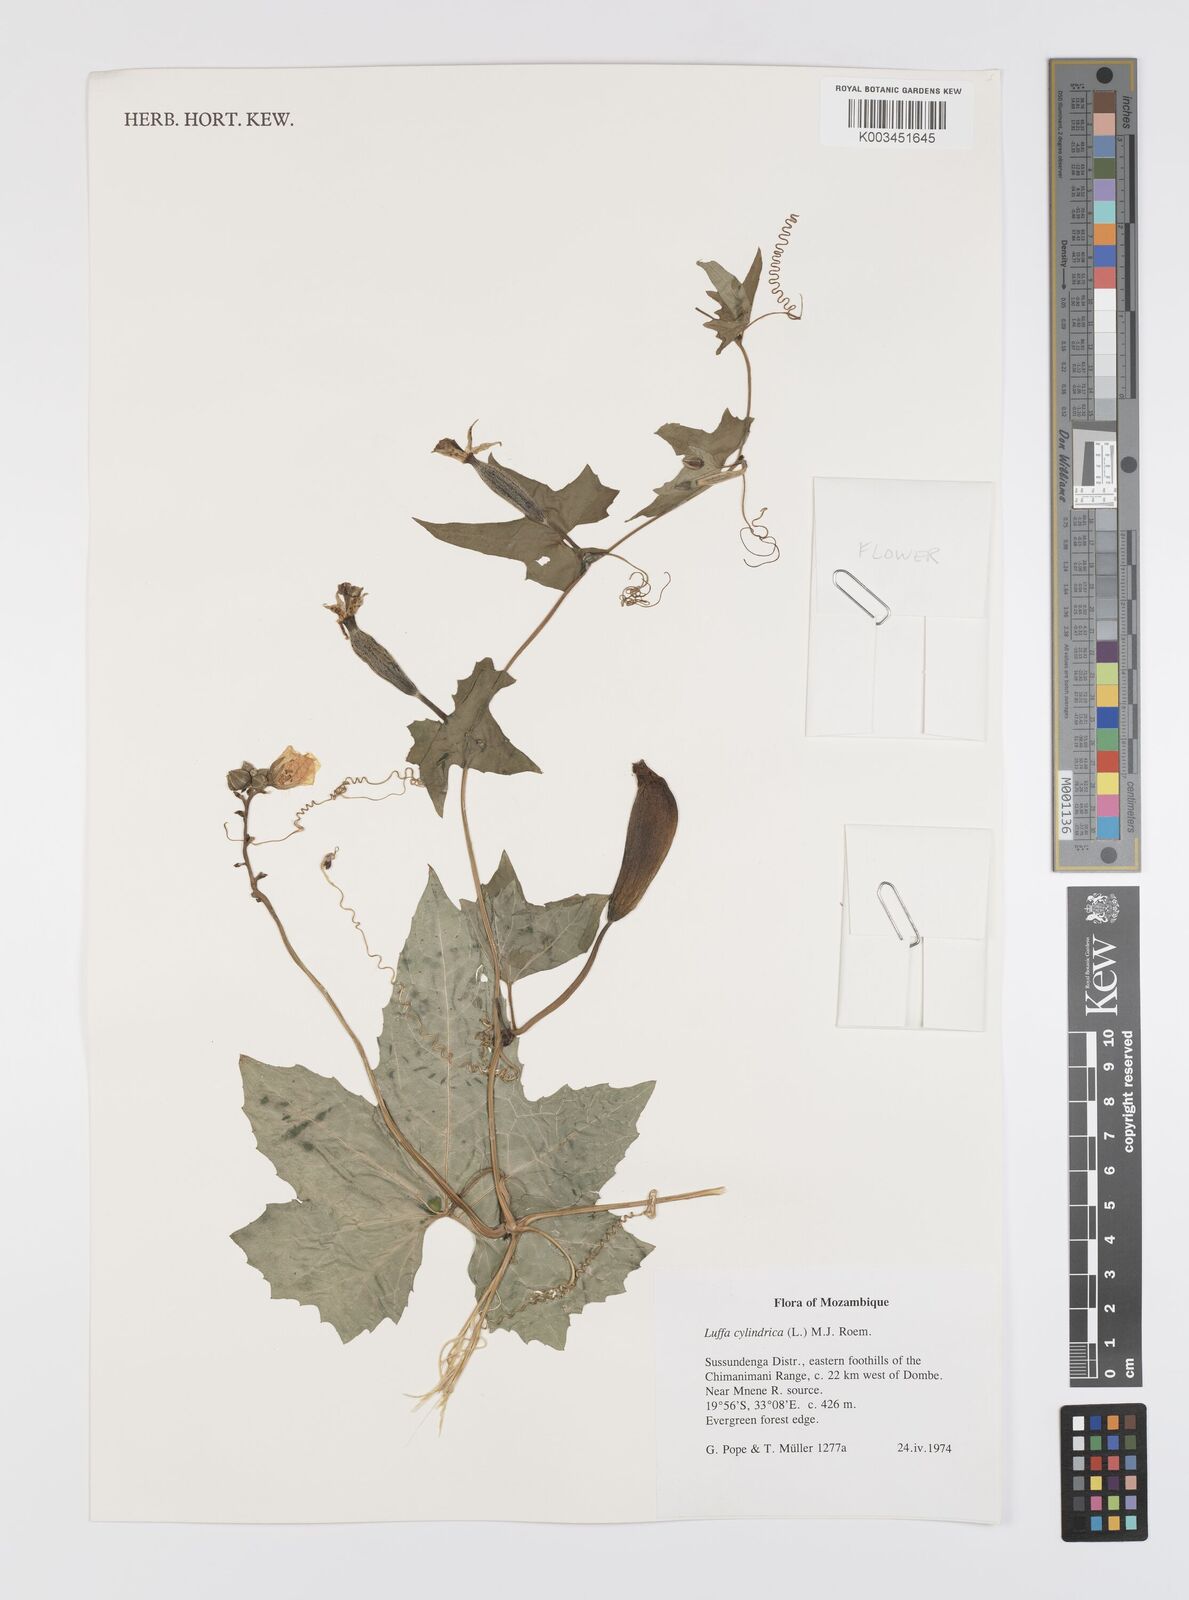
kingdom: Plantae
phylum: Tracheophyta
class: Magnoliopsida
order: Cucurbitales
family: Cucurbitaceae
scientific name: Cucurbitaceae
